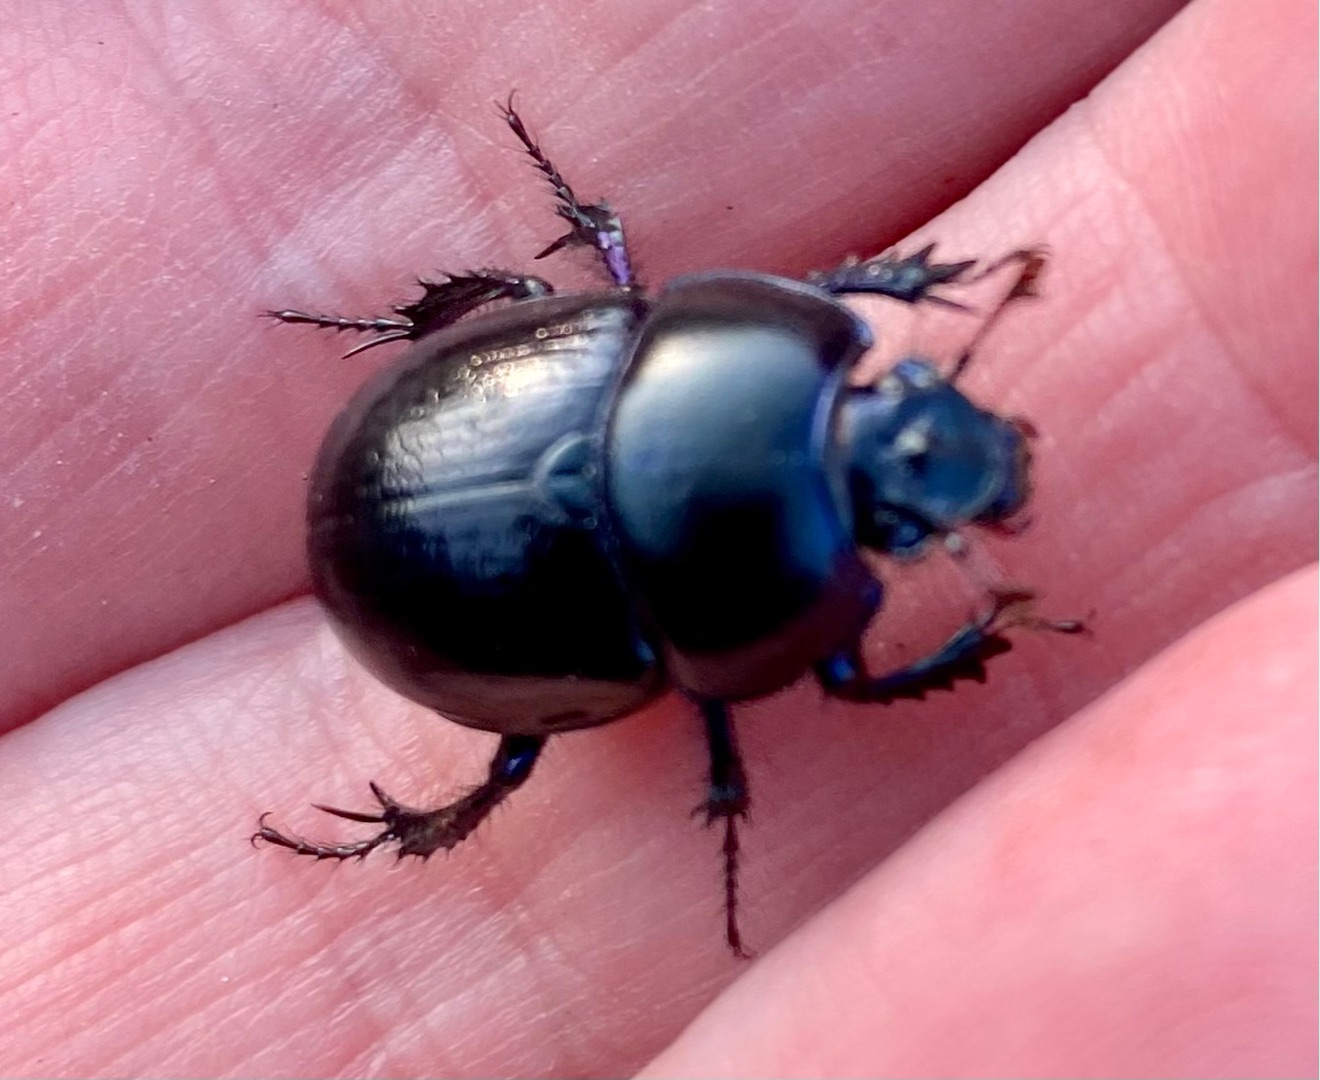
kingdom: Animalia
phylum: Arthropoda
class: Insecta
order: Coleoptera
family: Geotrupidae
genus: Anoplotrupes
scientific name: Anoplotrupes stercorosus
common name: Skovskarnbasse
